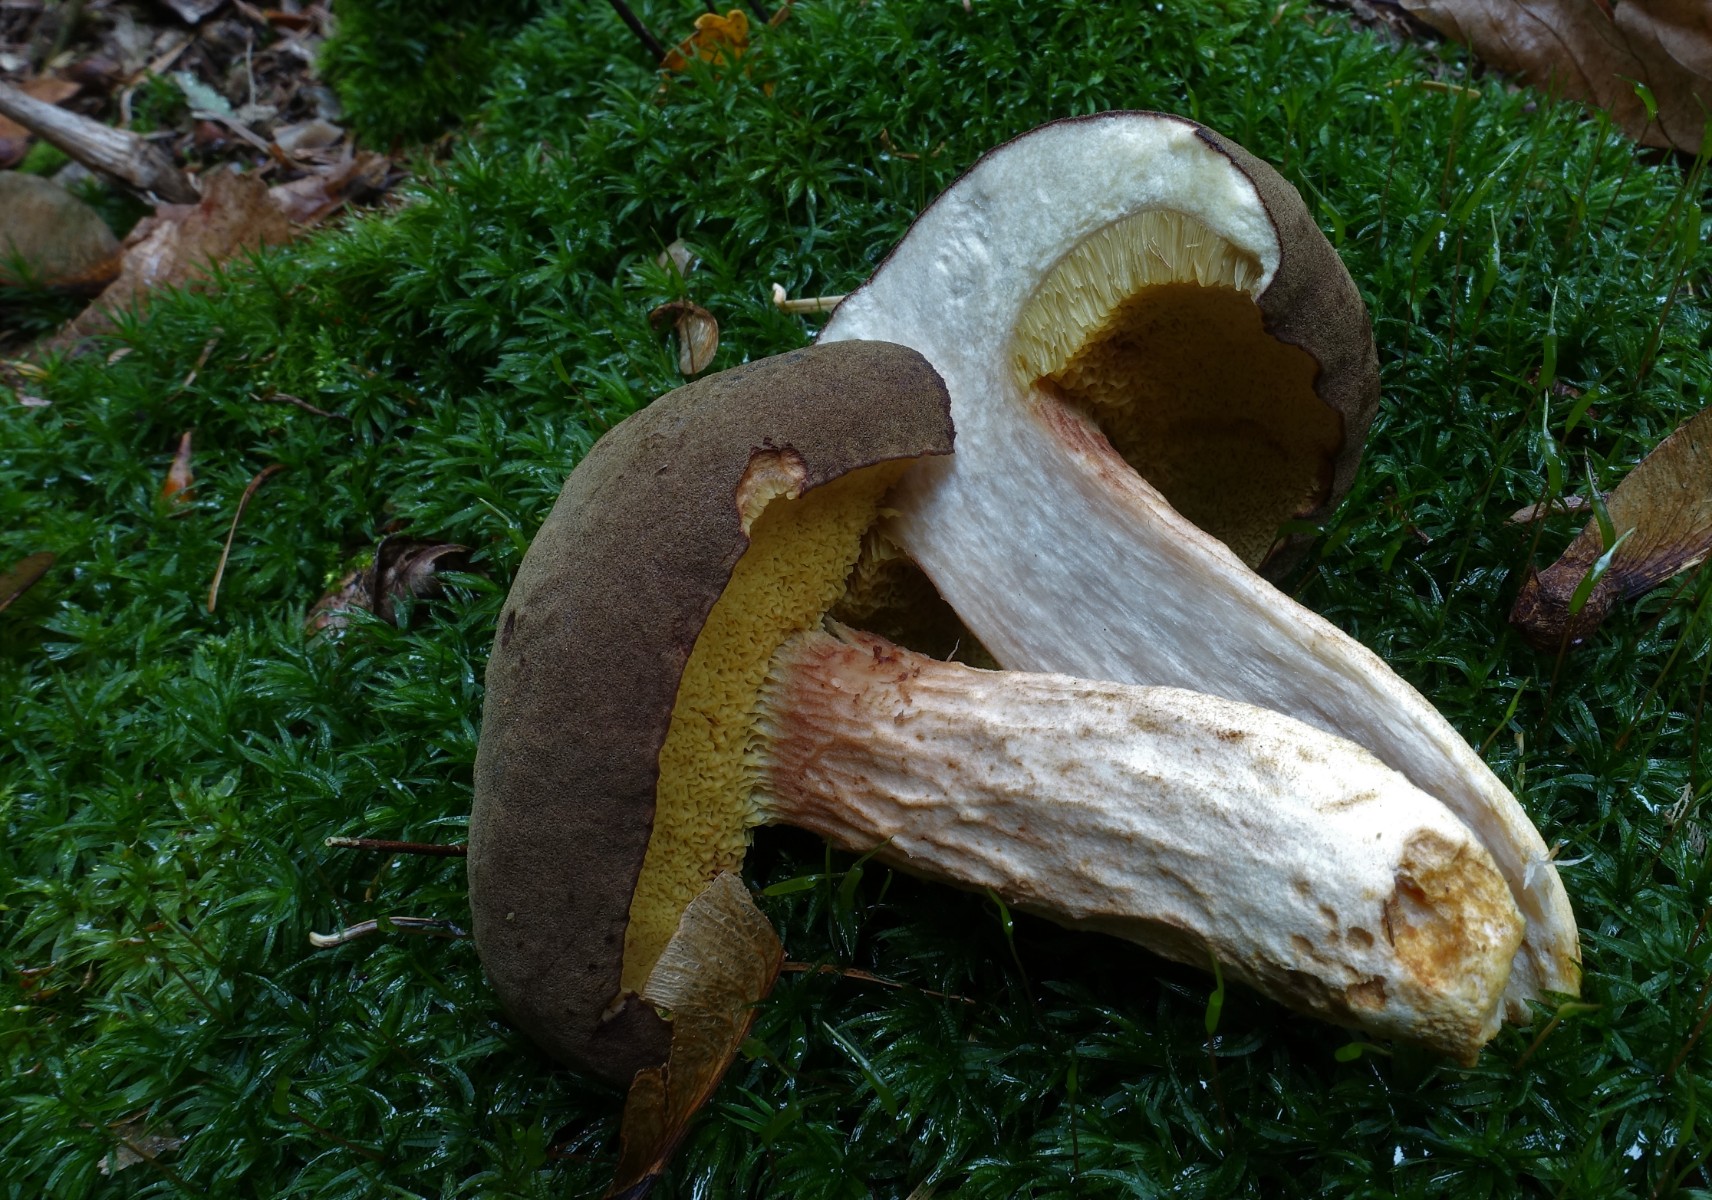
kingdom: Fungi
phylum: Basidiomycota
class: Agaricomycetes
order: Boletales
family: Boletaceae
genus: Xerocomus
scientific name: Xerocomus ferrugineus
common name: vaskeskinds-rørhat
